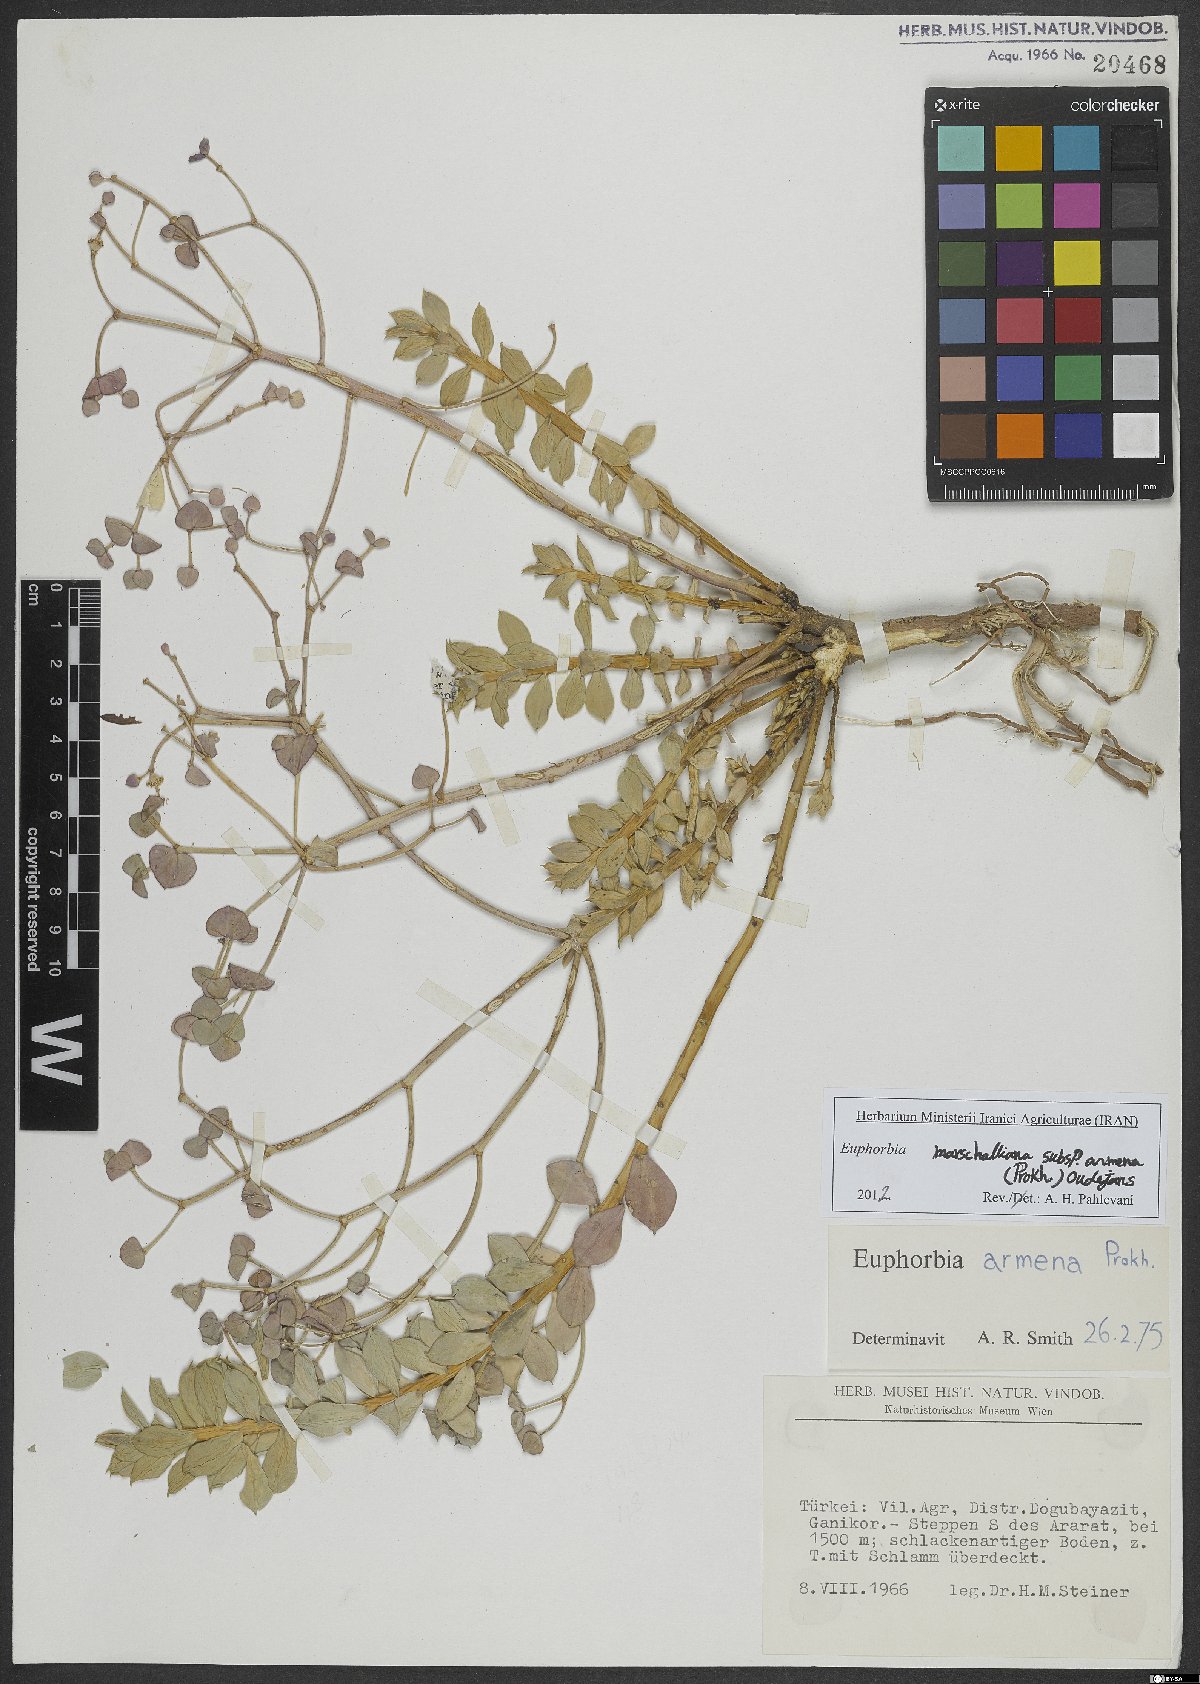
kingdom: Plantae
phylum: Tracheophyta
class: Magnoliopsida
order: Malpighiales
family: Euphorbiaceae
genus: Euphorbia
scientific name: Euphorbia marschalliana
